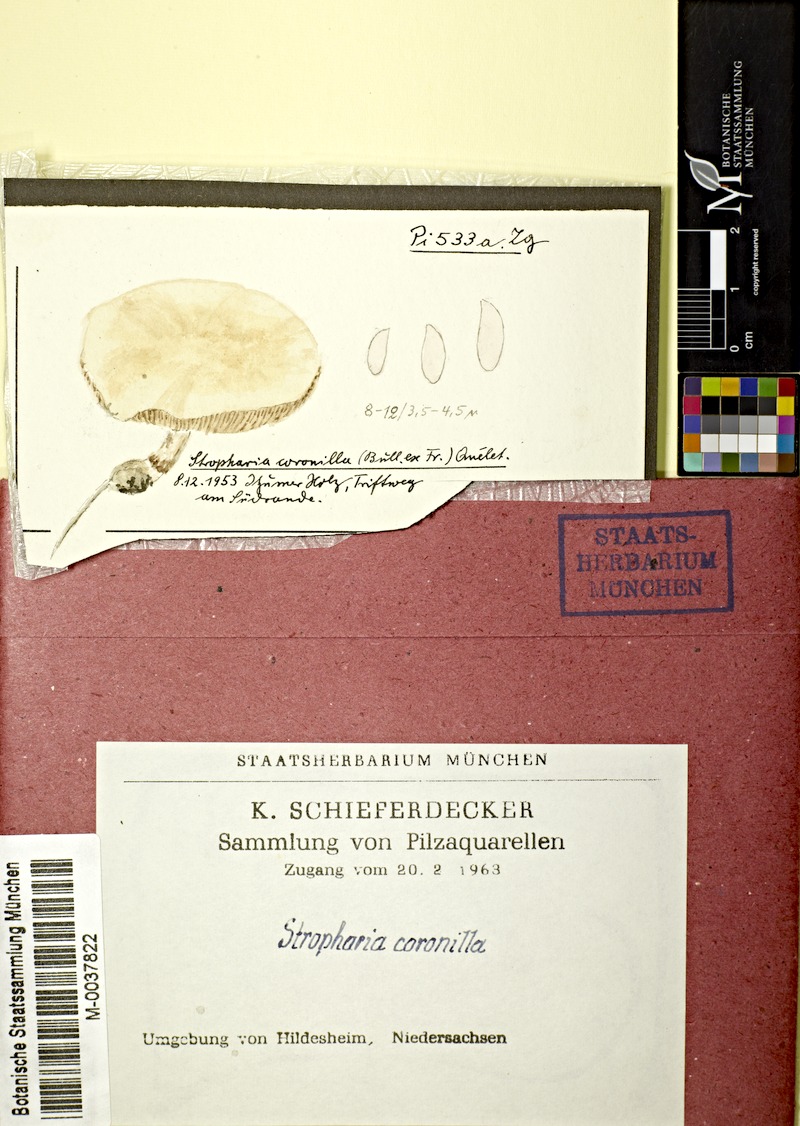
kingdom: Fungi
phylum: Basidiomycota
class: Agaricomycetes
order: Agaricales
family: Hymenogastraceae
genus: Psilocybe
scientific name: Psilocybe coronilla
